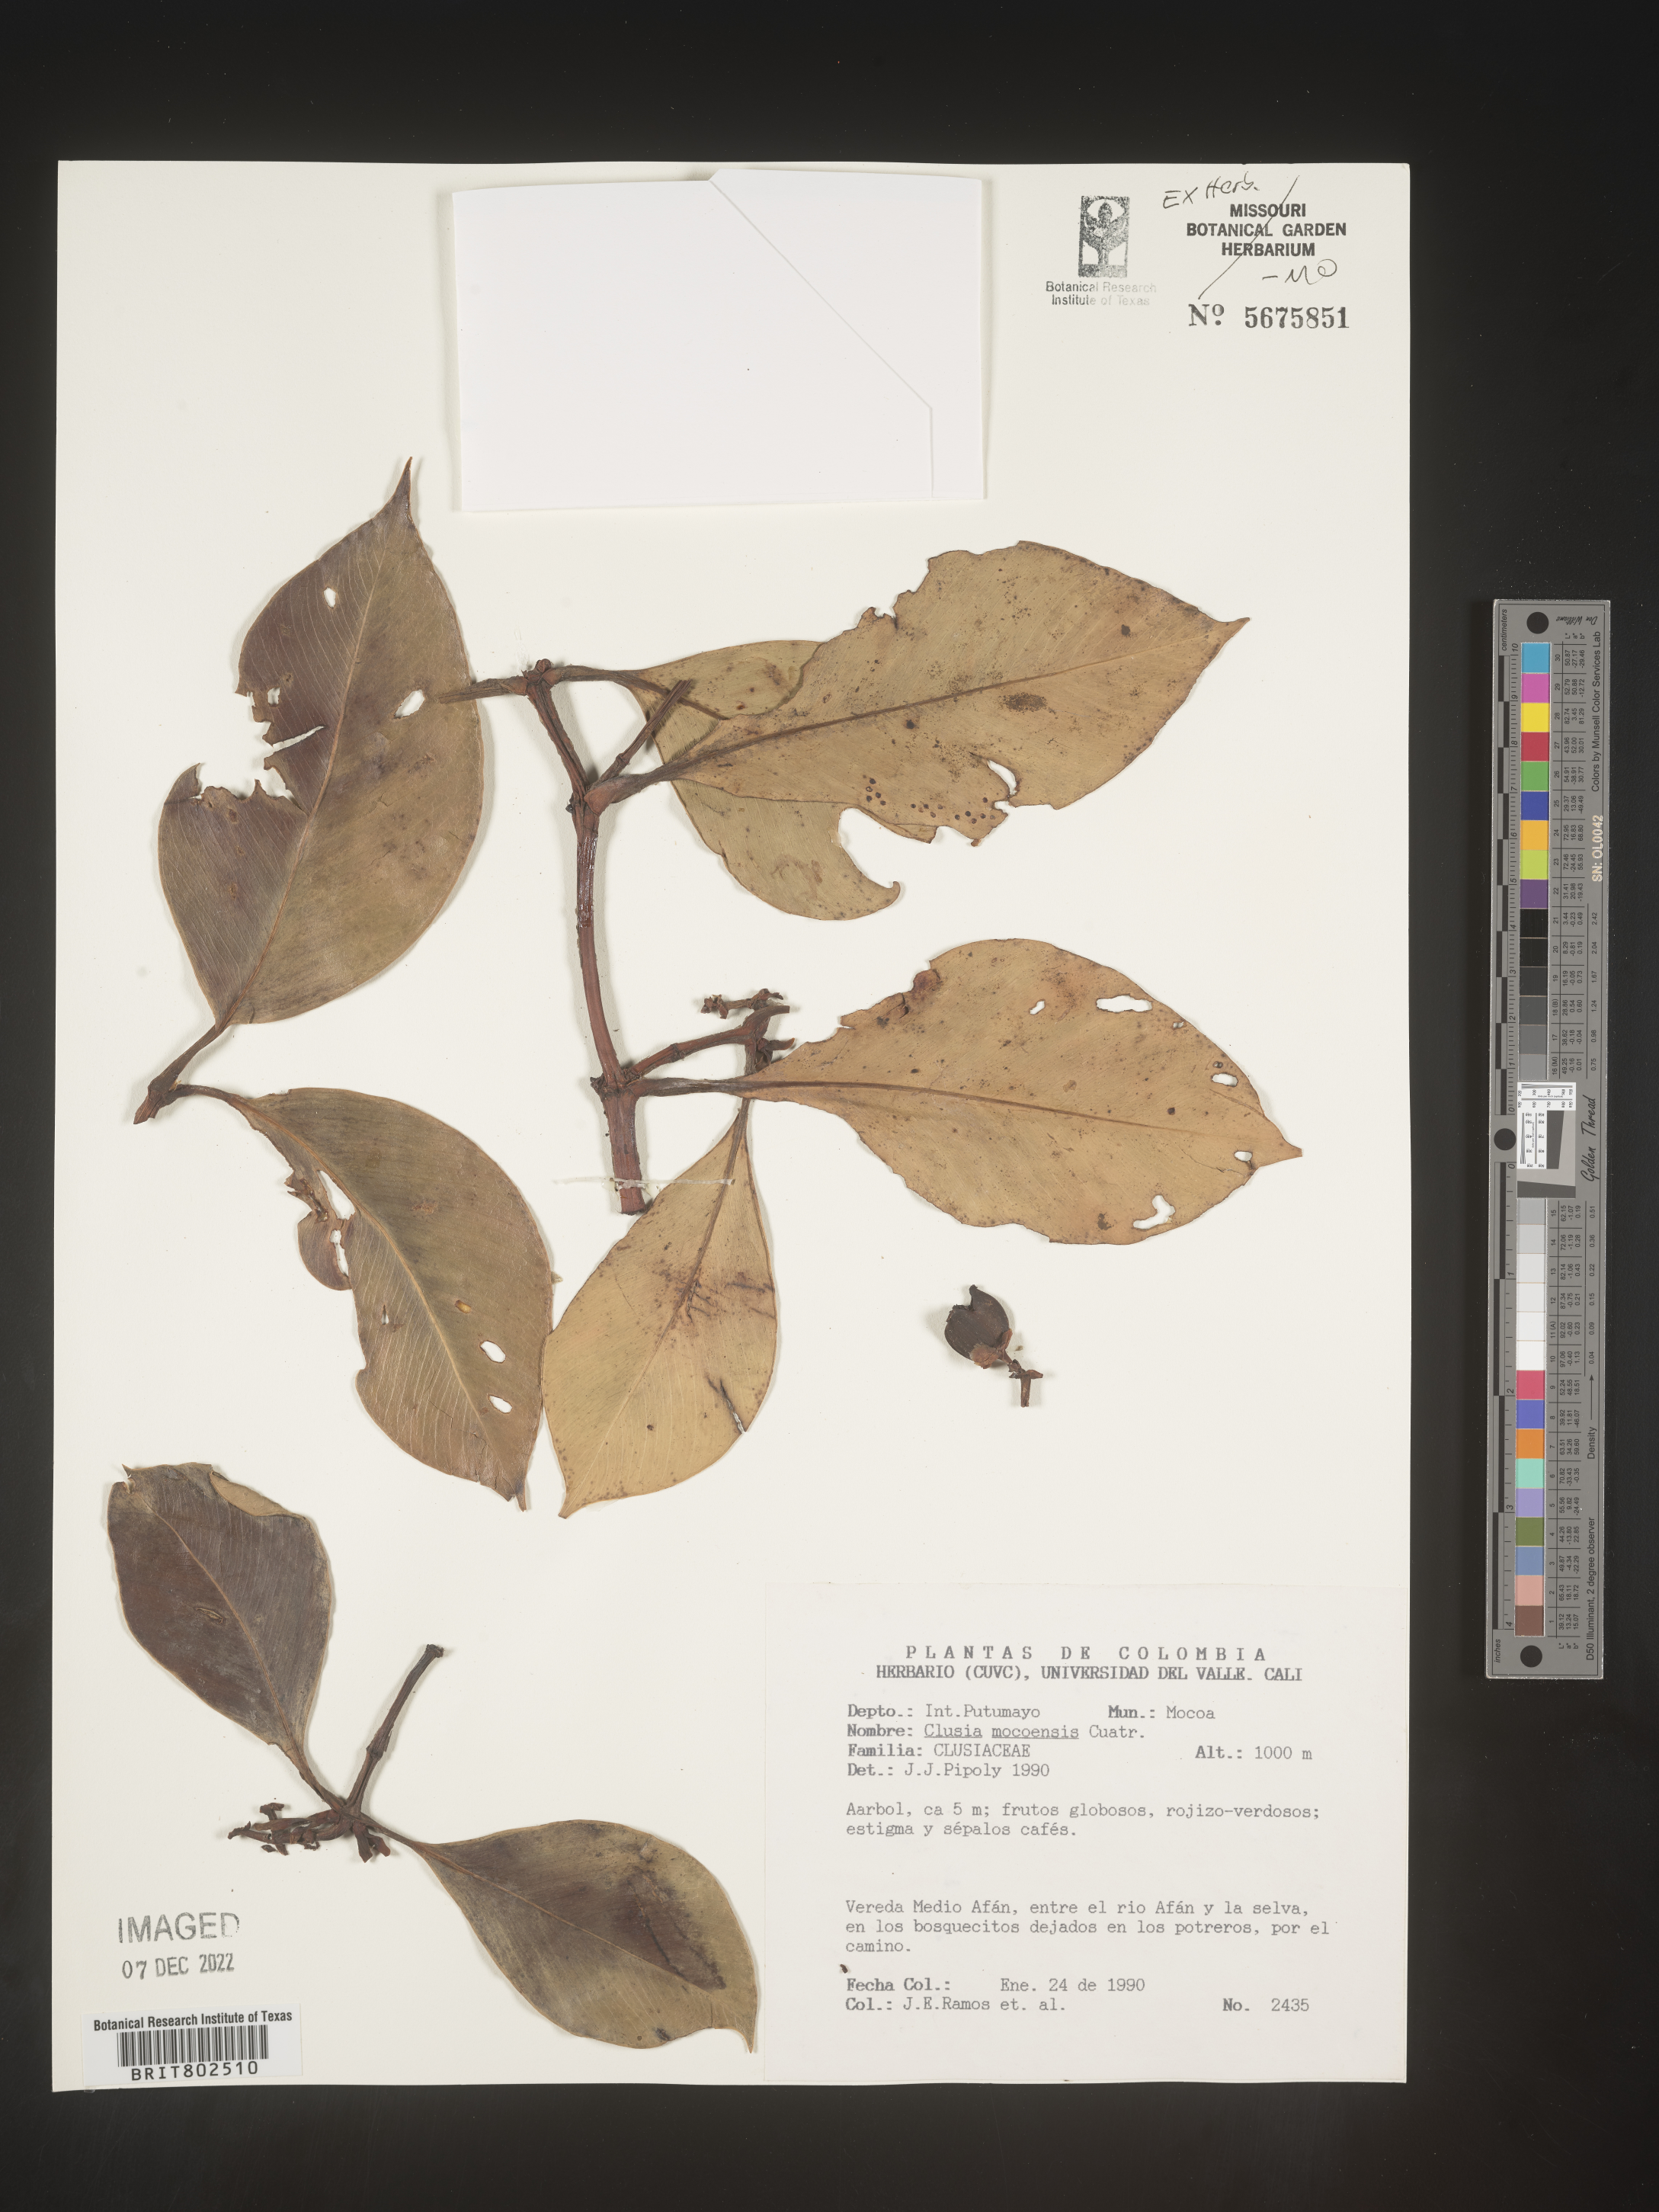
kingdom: Plantae
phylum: Tracheophyta
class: Magnoliopsida
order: Malpighiales
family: Clusiaceae
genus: Clusia
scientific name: Clusia
